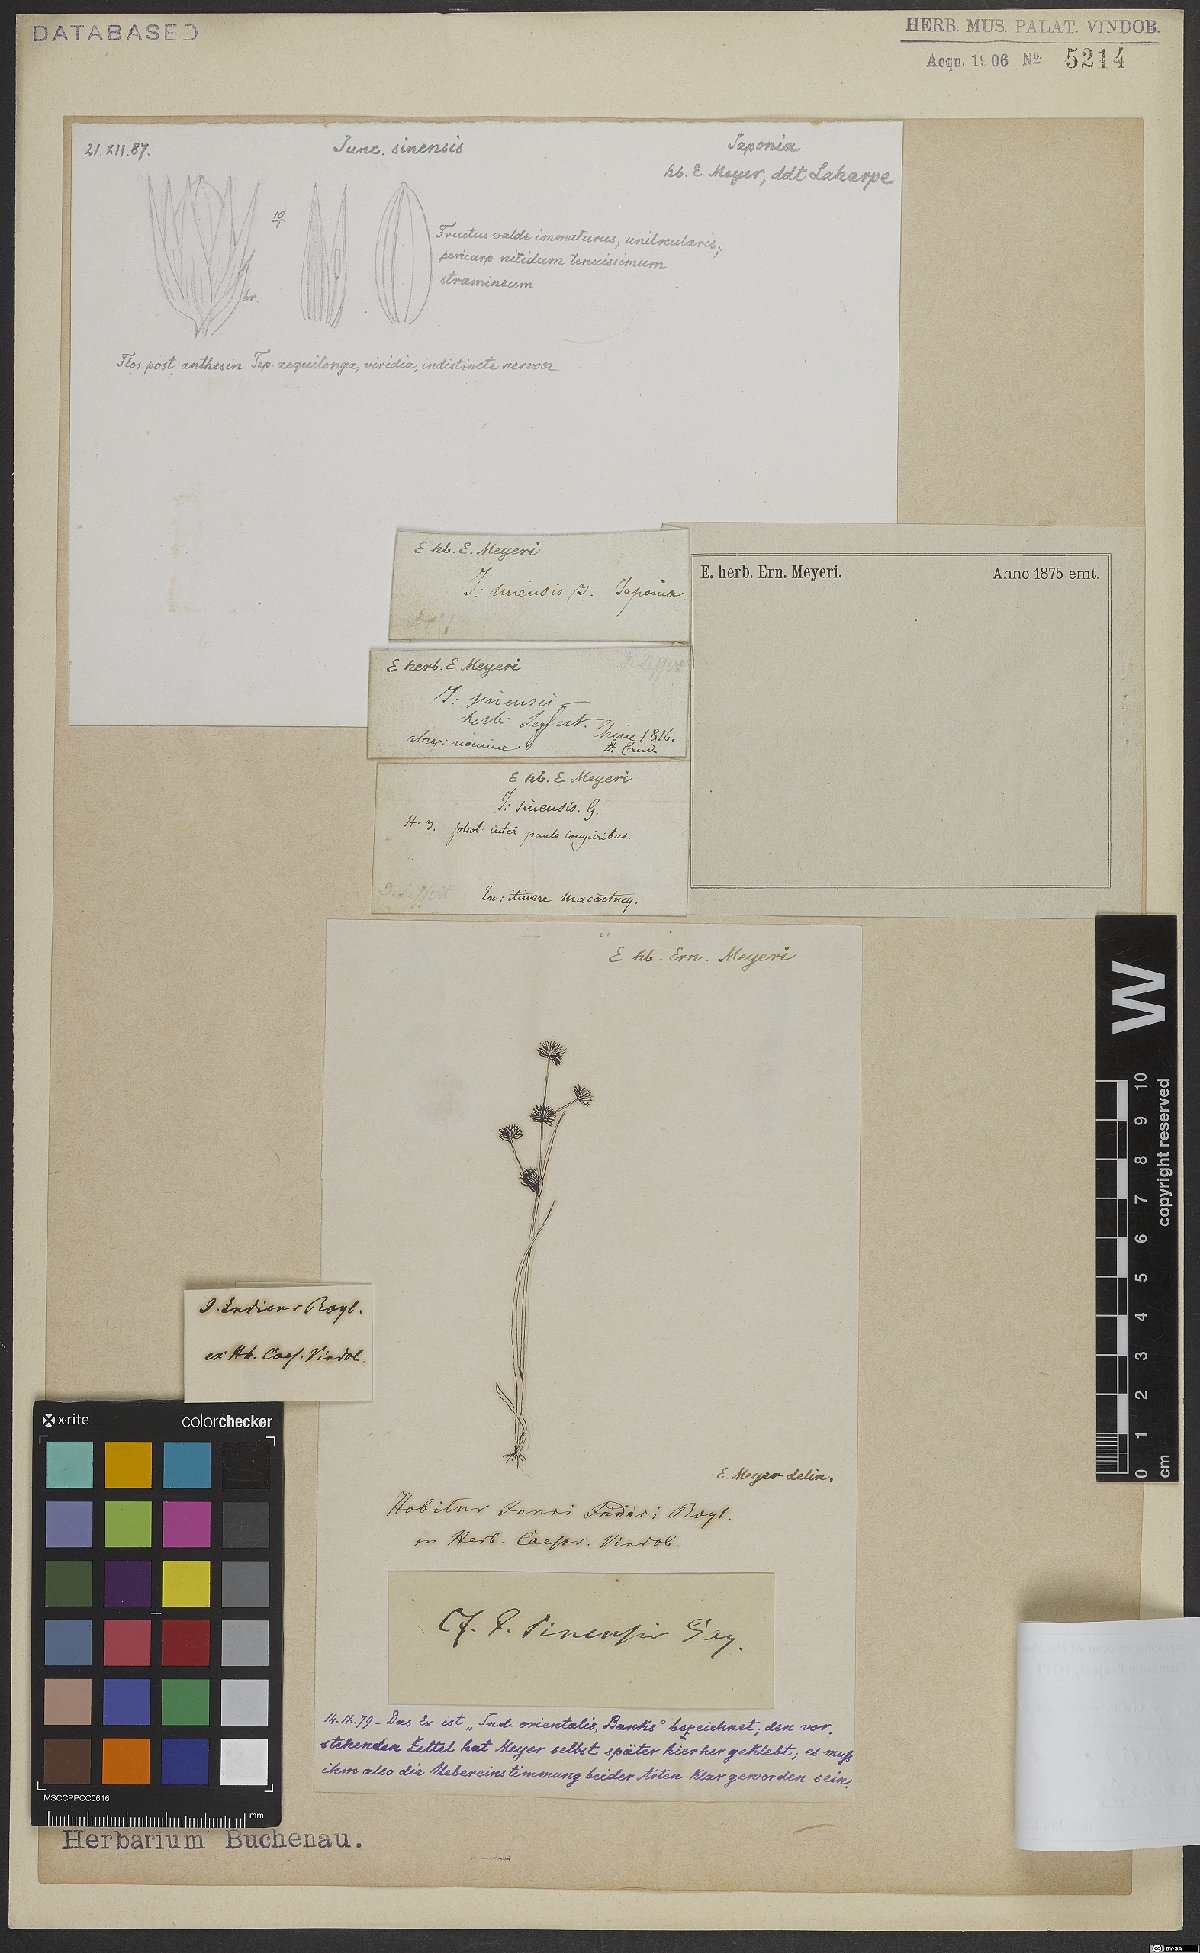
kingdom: Plantae
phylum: Tracheophyta
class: Liliopsida
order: Poales
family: Juncaceae
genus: Juncus
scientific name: Juncus prismatocarpus
